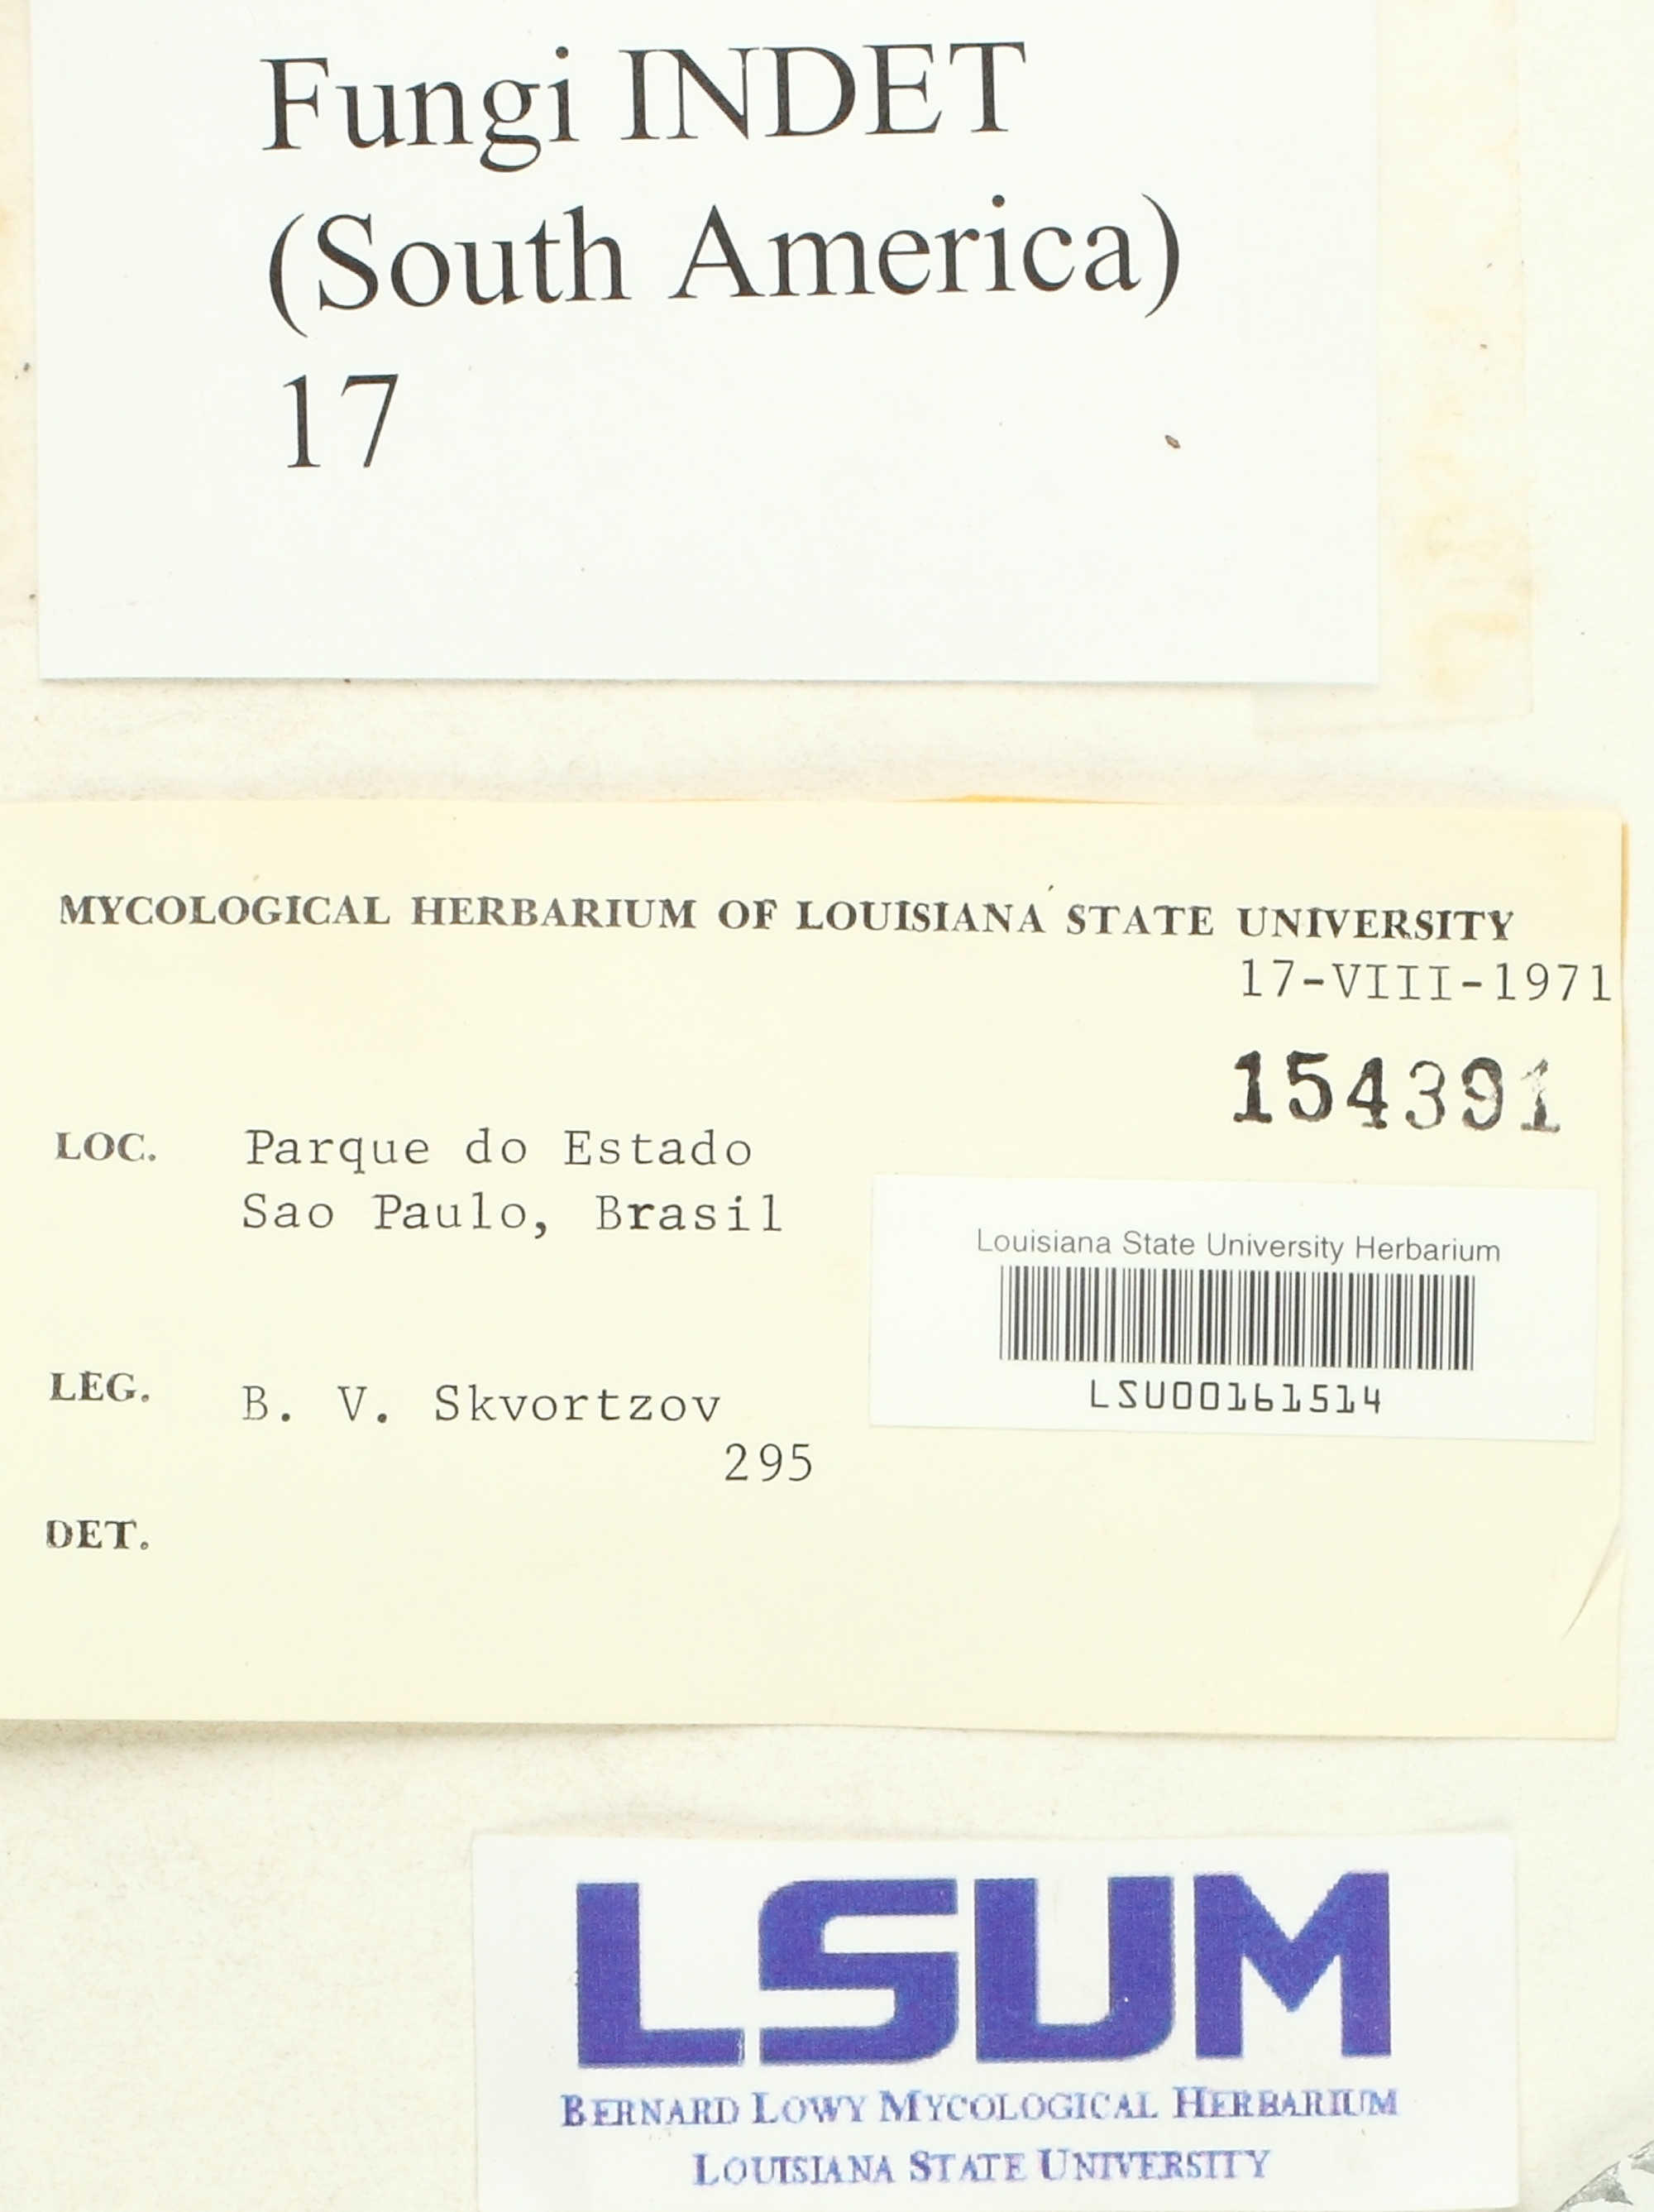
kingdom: Fungi
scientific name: Fungi
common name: Fungi
